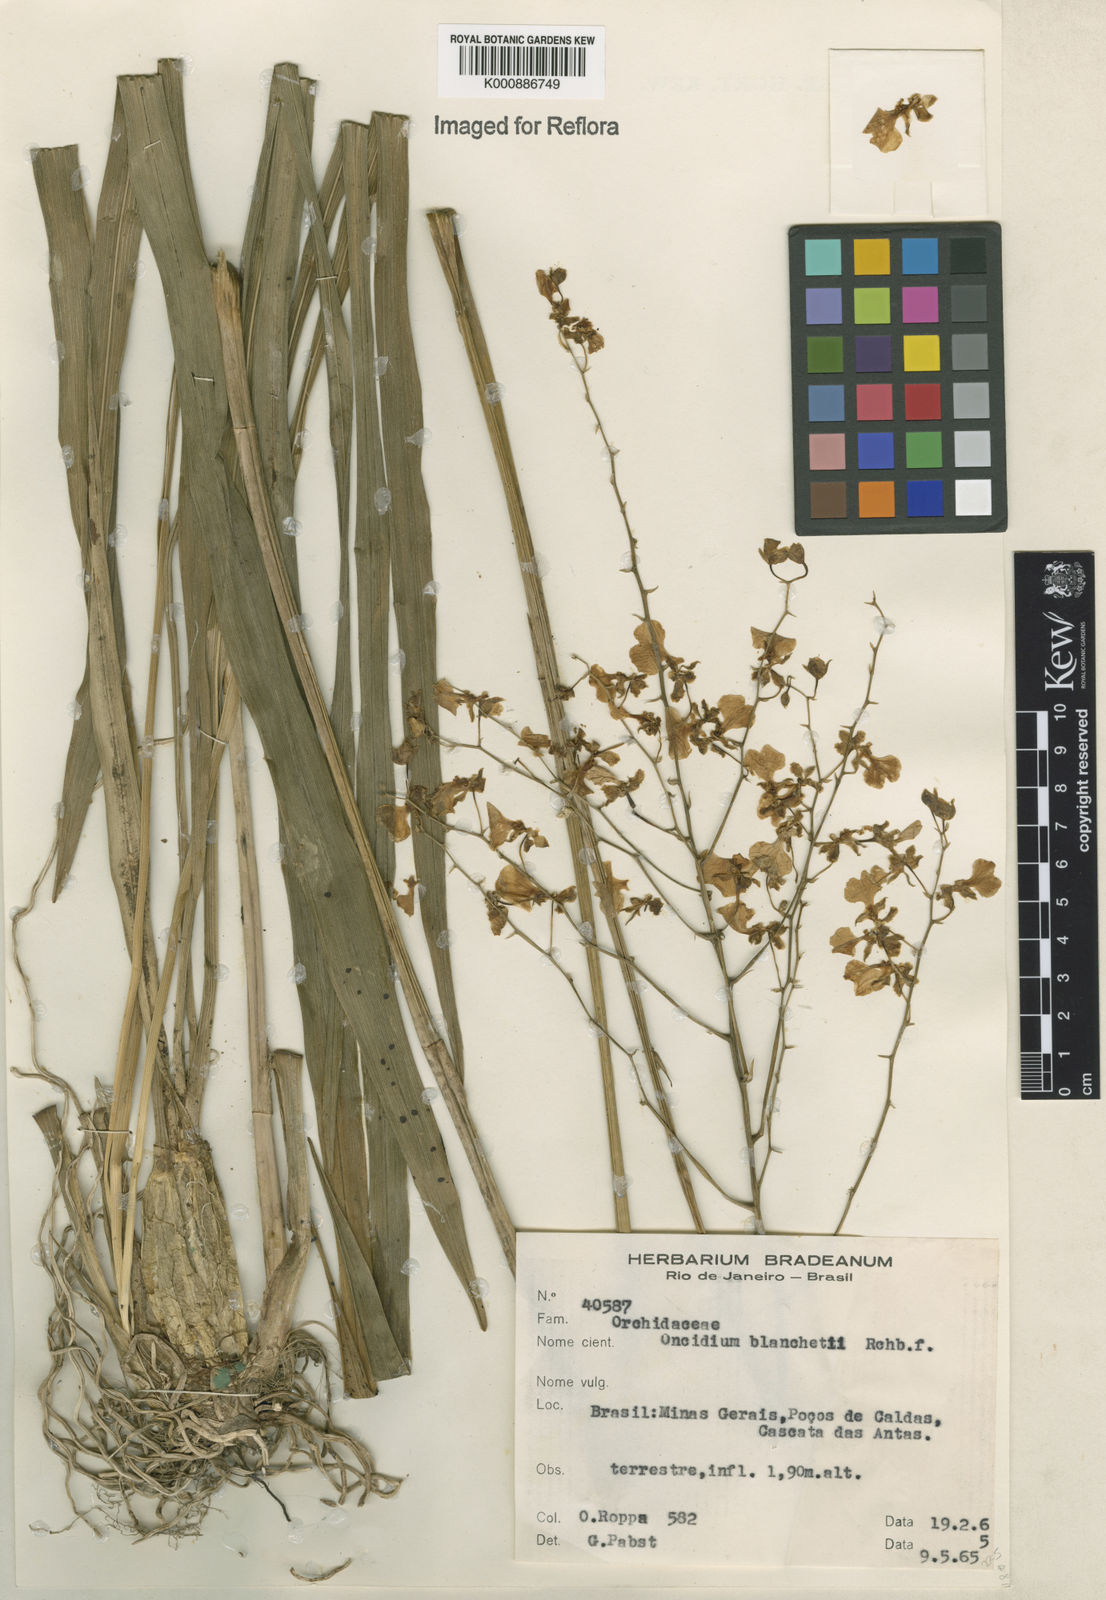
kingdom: Plantae
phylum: Tracheophyta
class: Liliopsida
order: Asparagales
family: Orchidaceae
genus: Gomesa
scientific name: Gomesa ramosa
